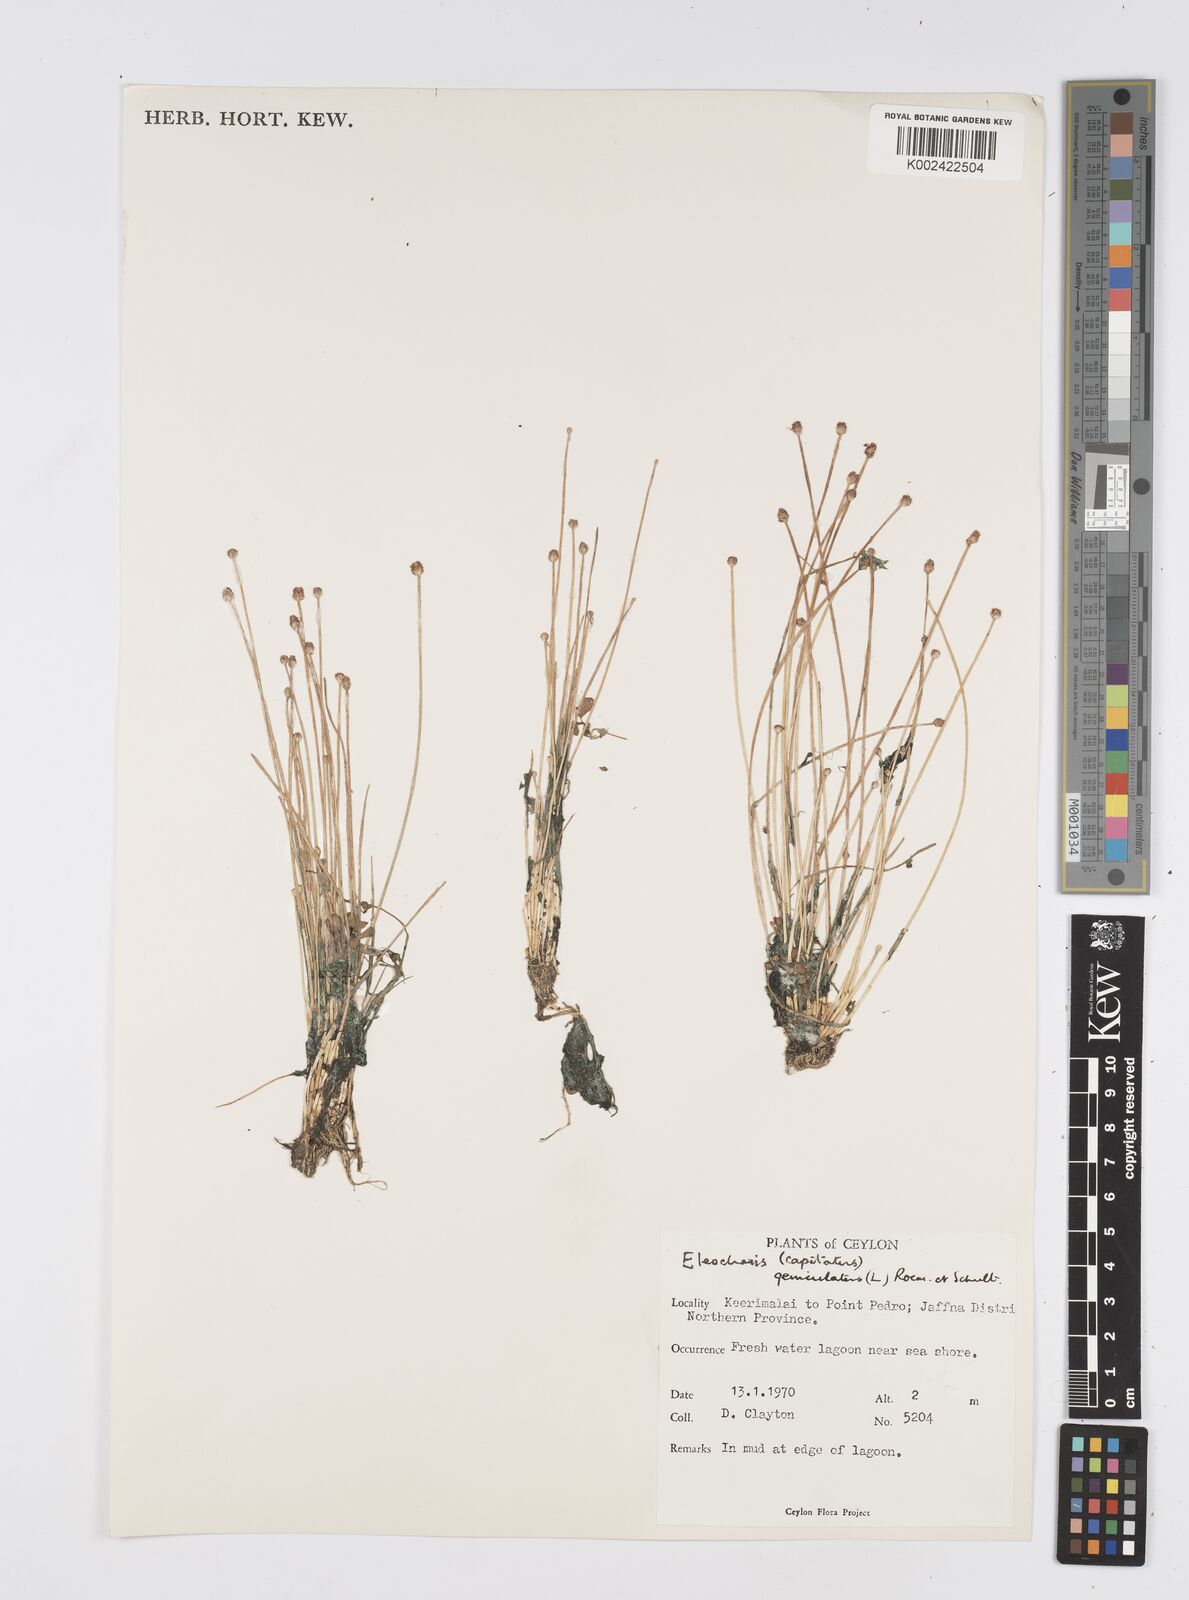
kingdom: Plantae
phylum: Tracheophyta
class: Liliopsida
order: Poales
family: Cyperaceae
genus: Eleocharis
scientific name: Eleocharis geniculata
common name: Canada spikesedge
